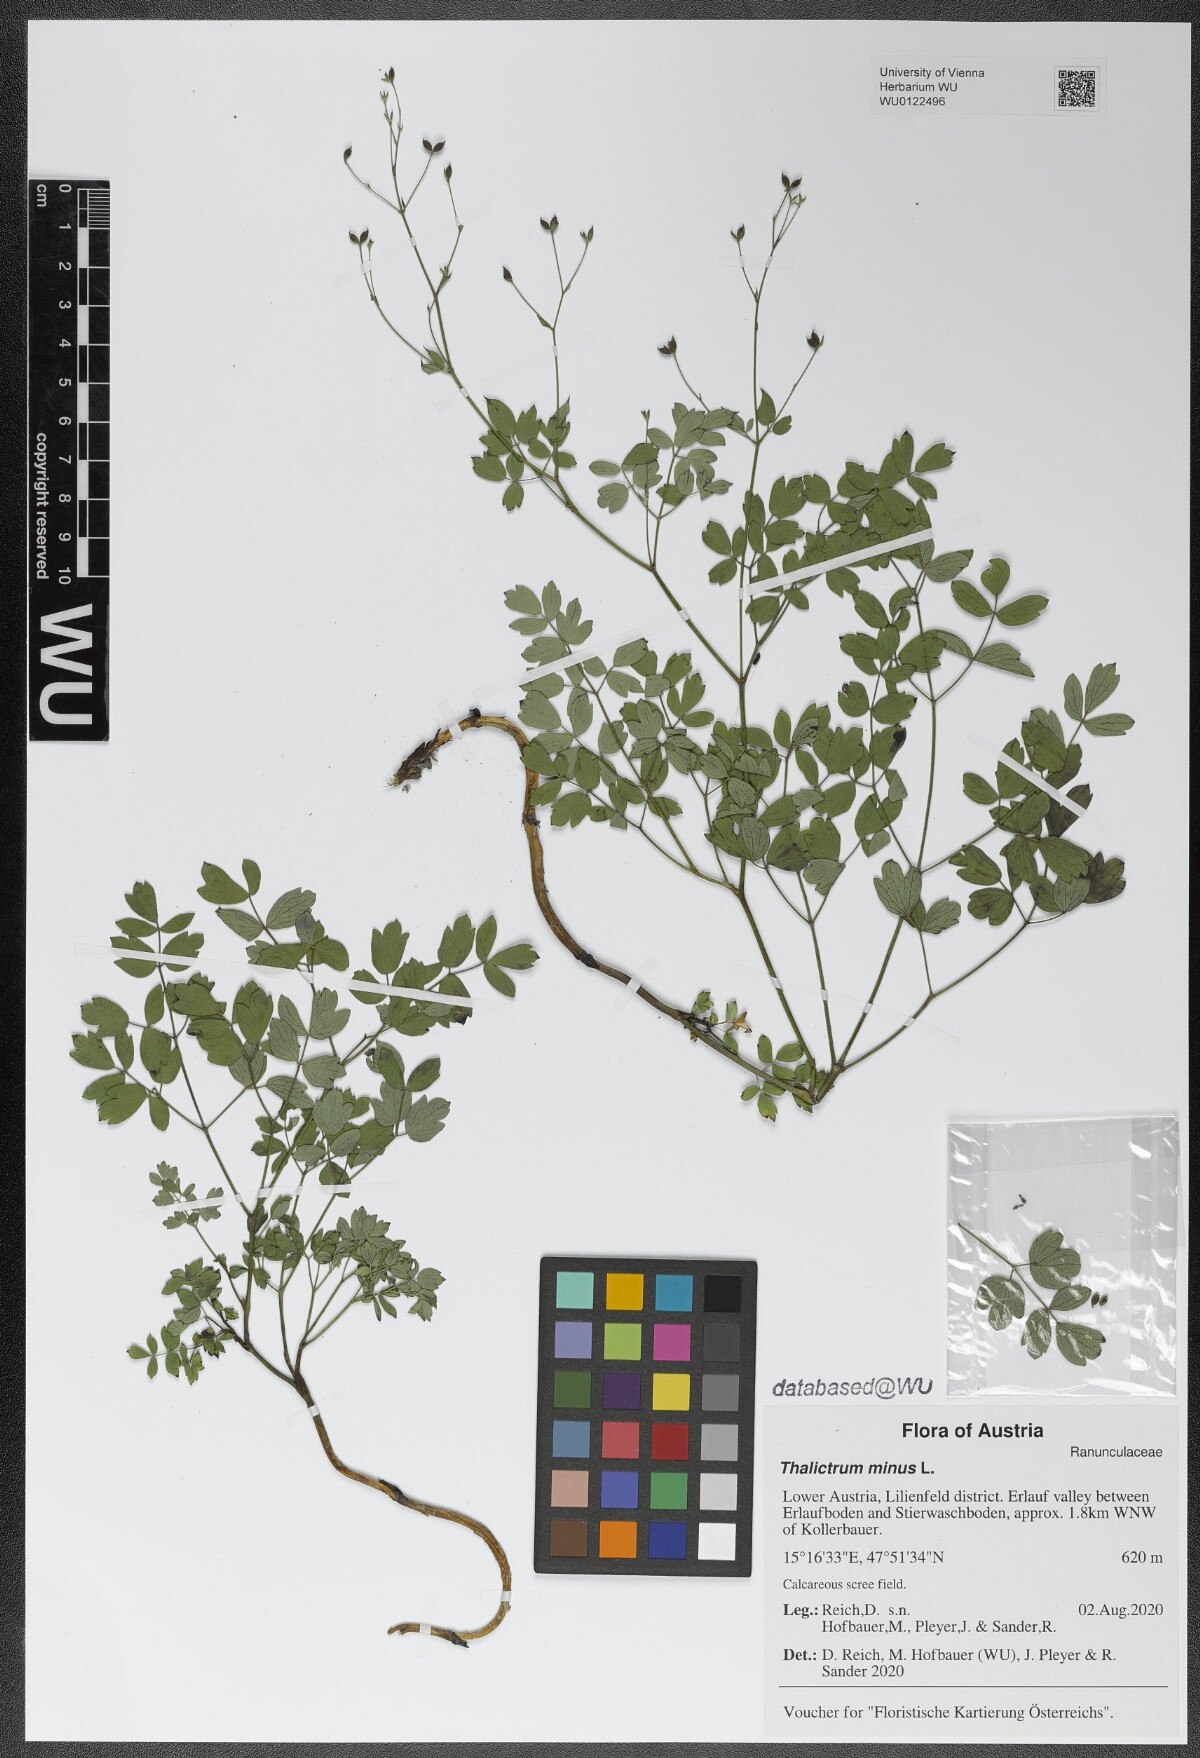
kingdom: Plantae
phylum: Tracheophyta
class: Magnoliopsida
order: Ranunculales
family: Ranunculaceae
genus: Thalictrum
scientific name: Thalictrum minus
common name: Lesser meadow-rue
